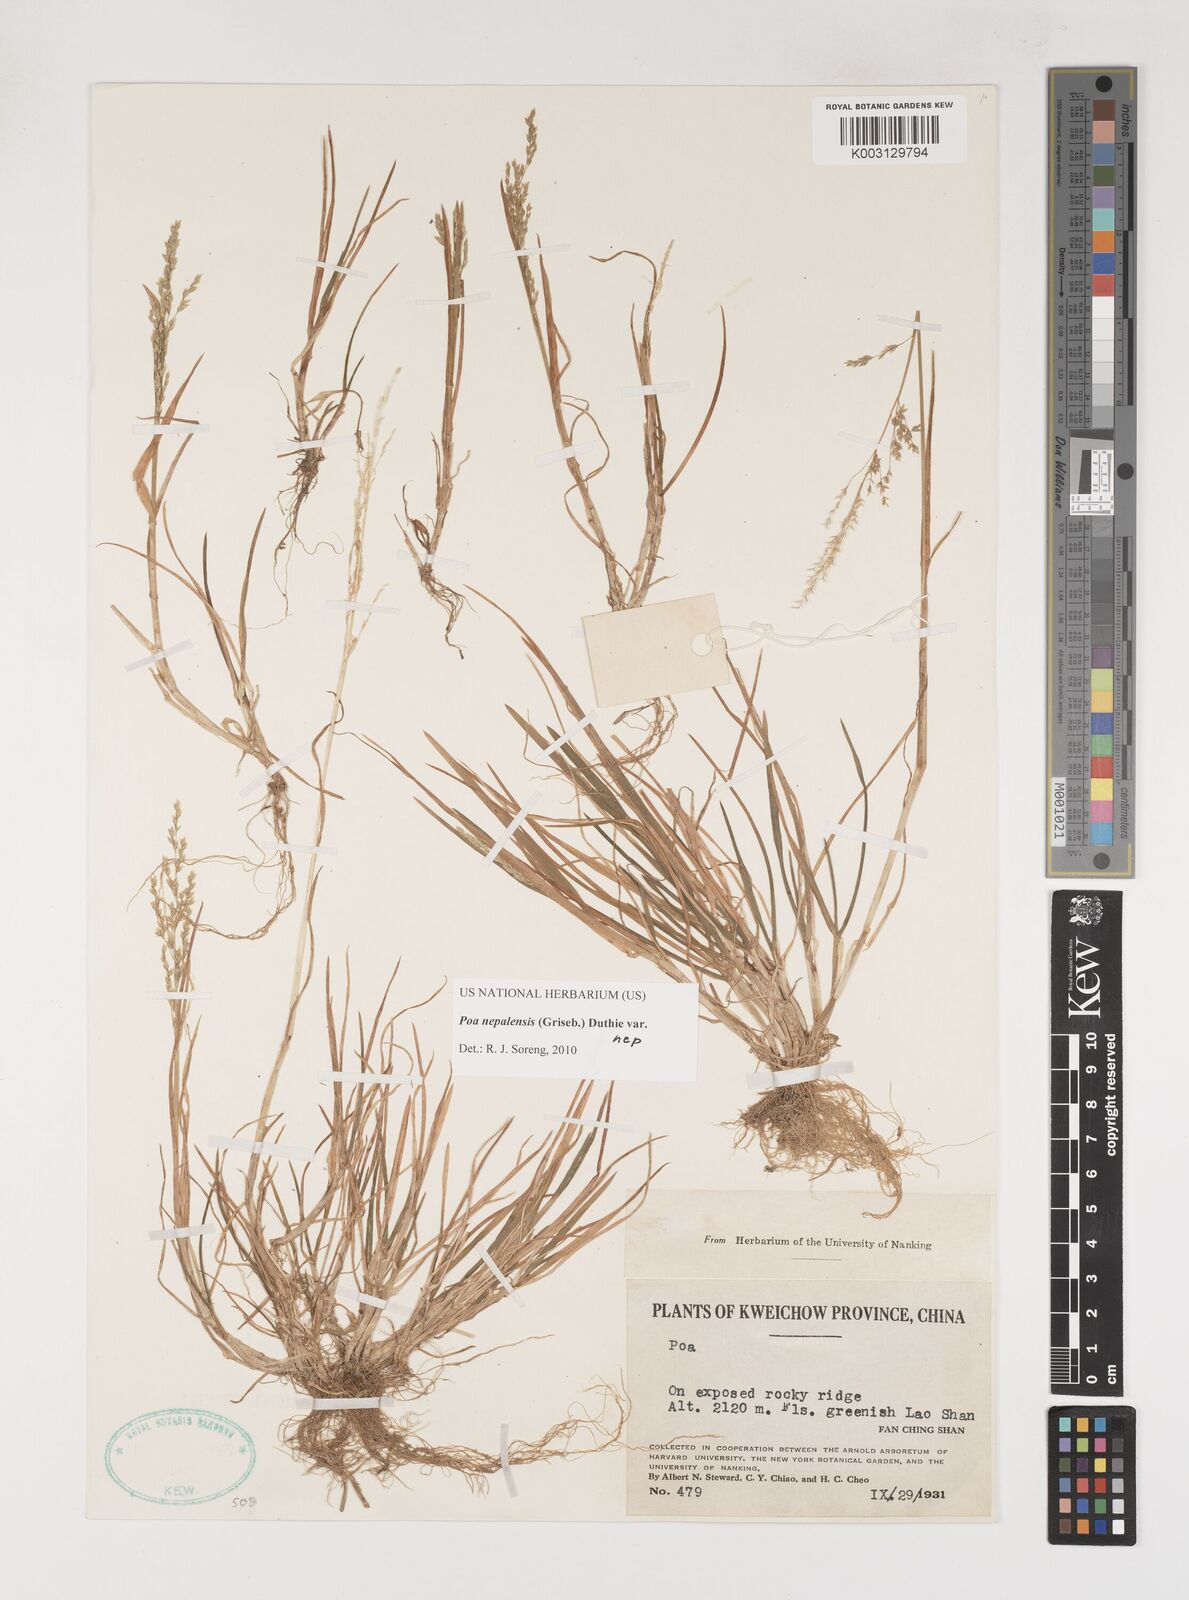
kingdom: Plantae
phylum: Tracheophyta
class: Liliopsida
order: Poales
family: Poaceae
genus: Poa
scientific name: Poa nepalensis
